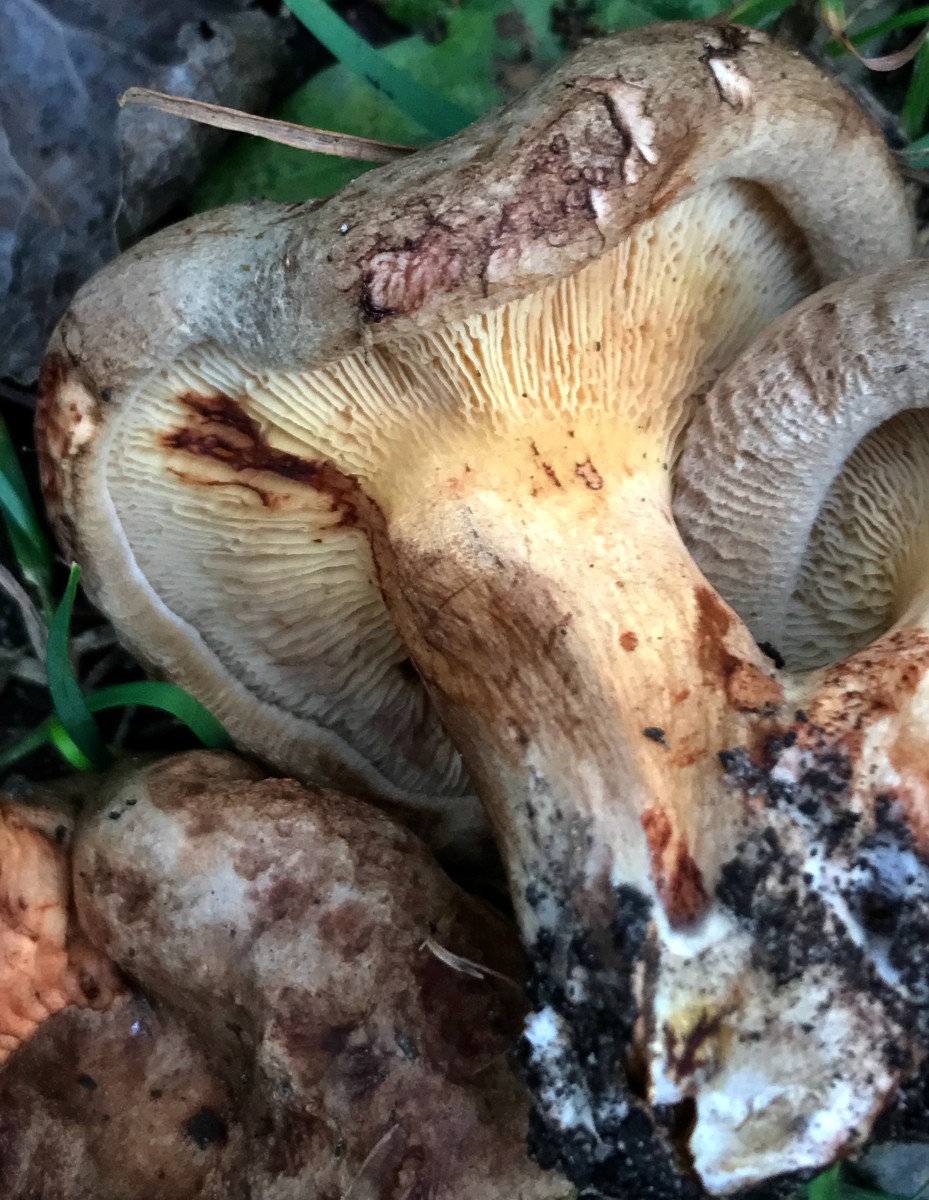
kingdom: Fungi
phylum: Basidiomycota
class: Agaricomycetes
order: Boletales
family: Paxillaceae
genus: Paxillus
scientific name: Paxillus involutus
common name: almindelig netbladhat
